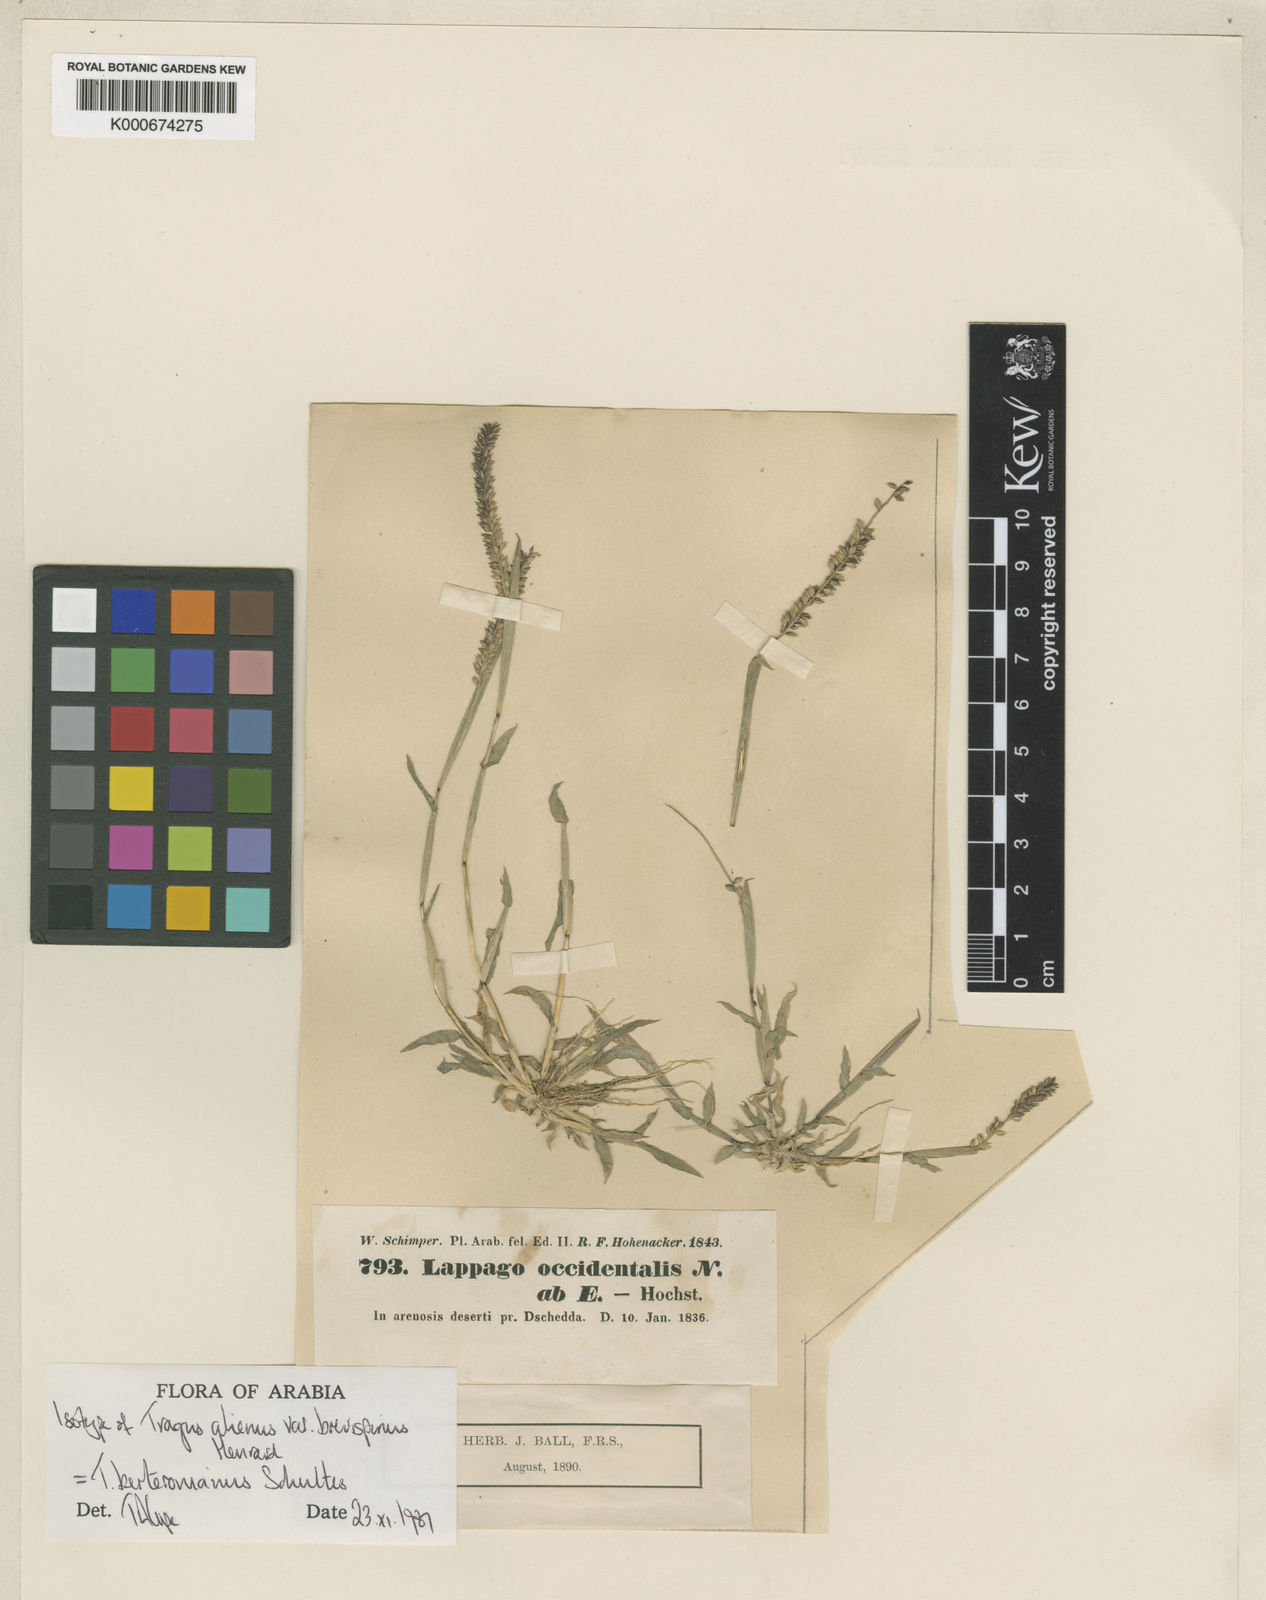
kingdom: Plantae
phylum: Tracheophyta
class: Liliopsida
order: Poales
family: Poaceae
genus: Tragus
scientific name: Tragus berteronianus
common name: African bur-grass
